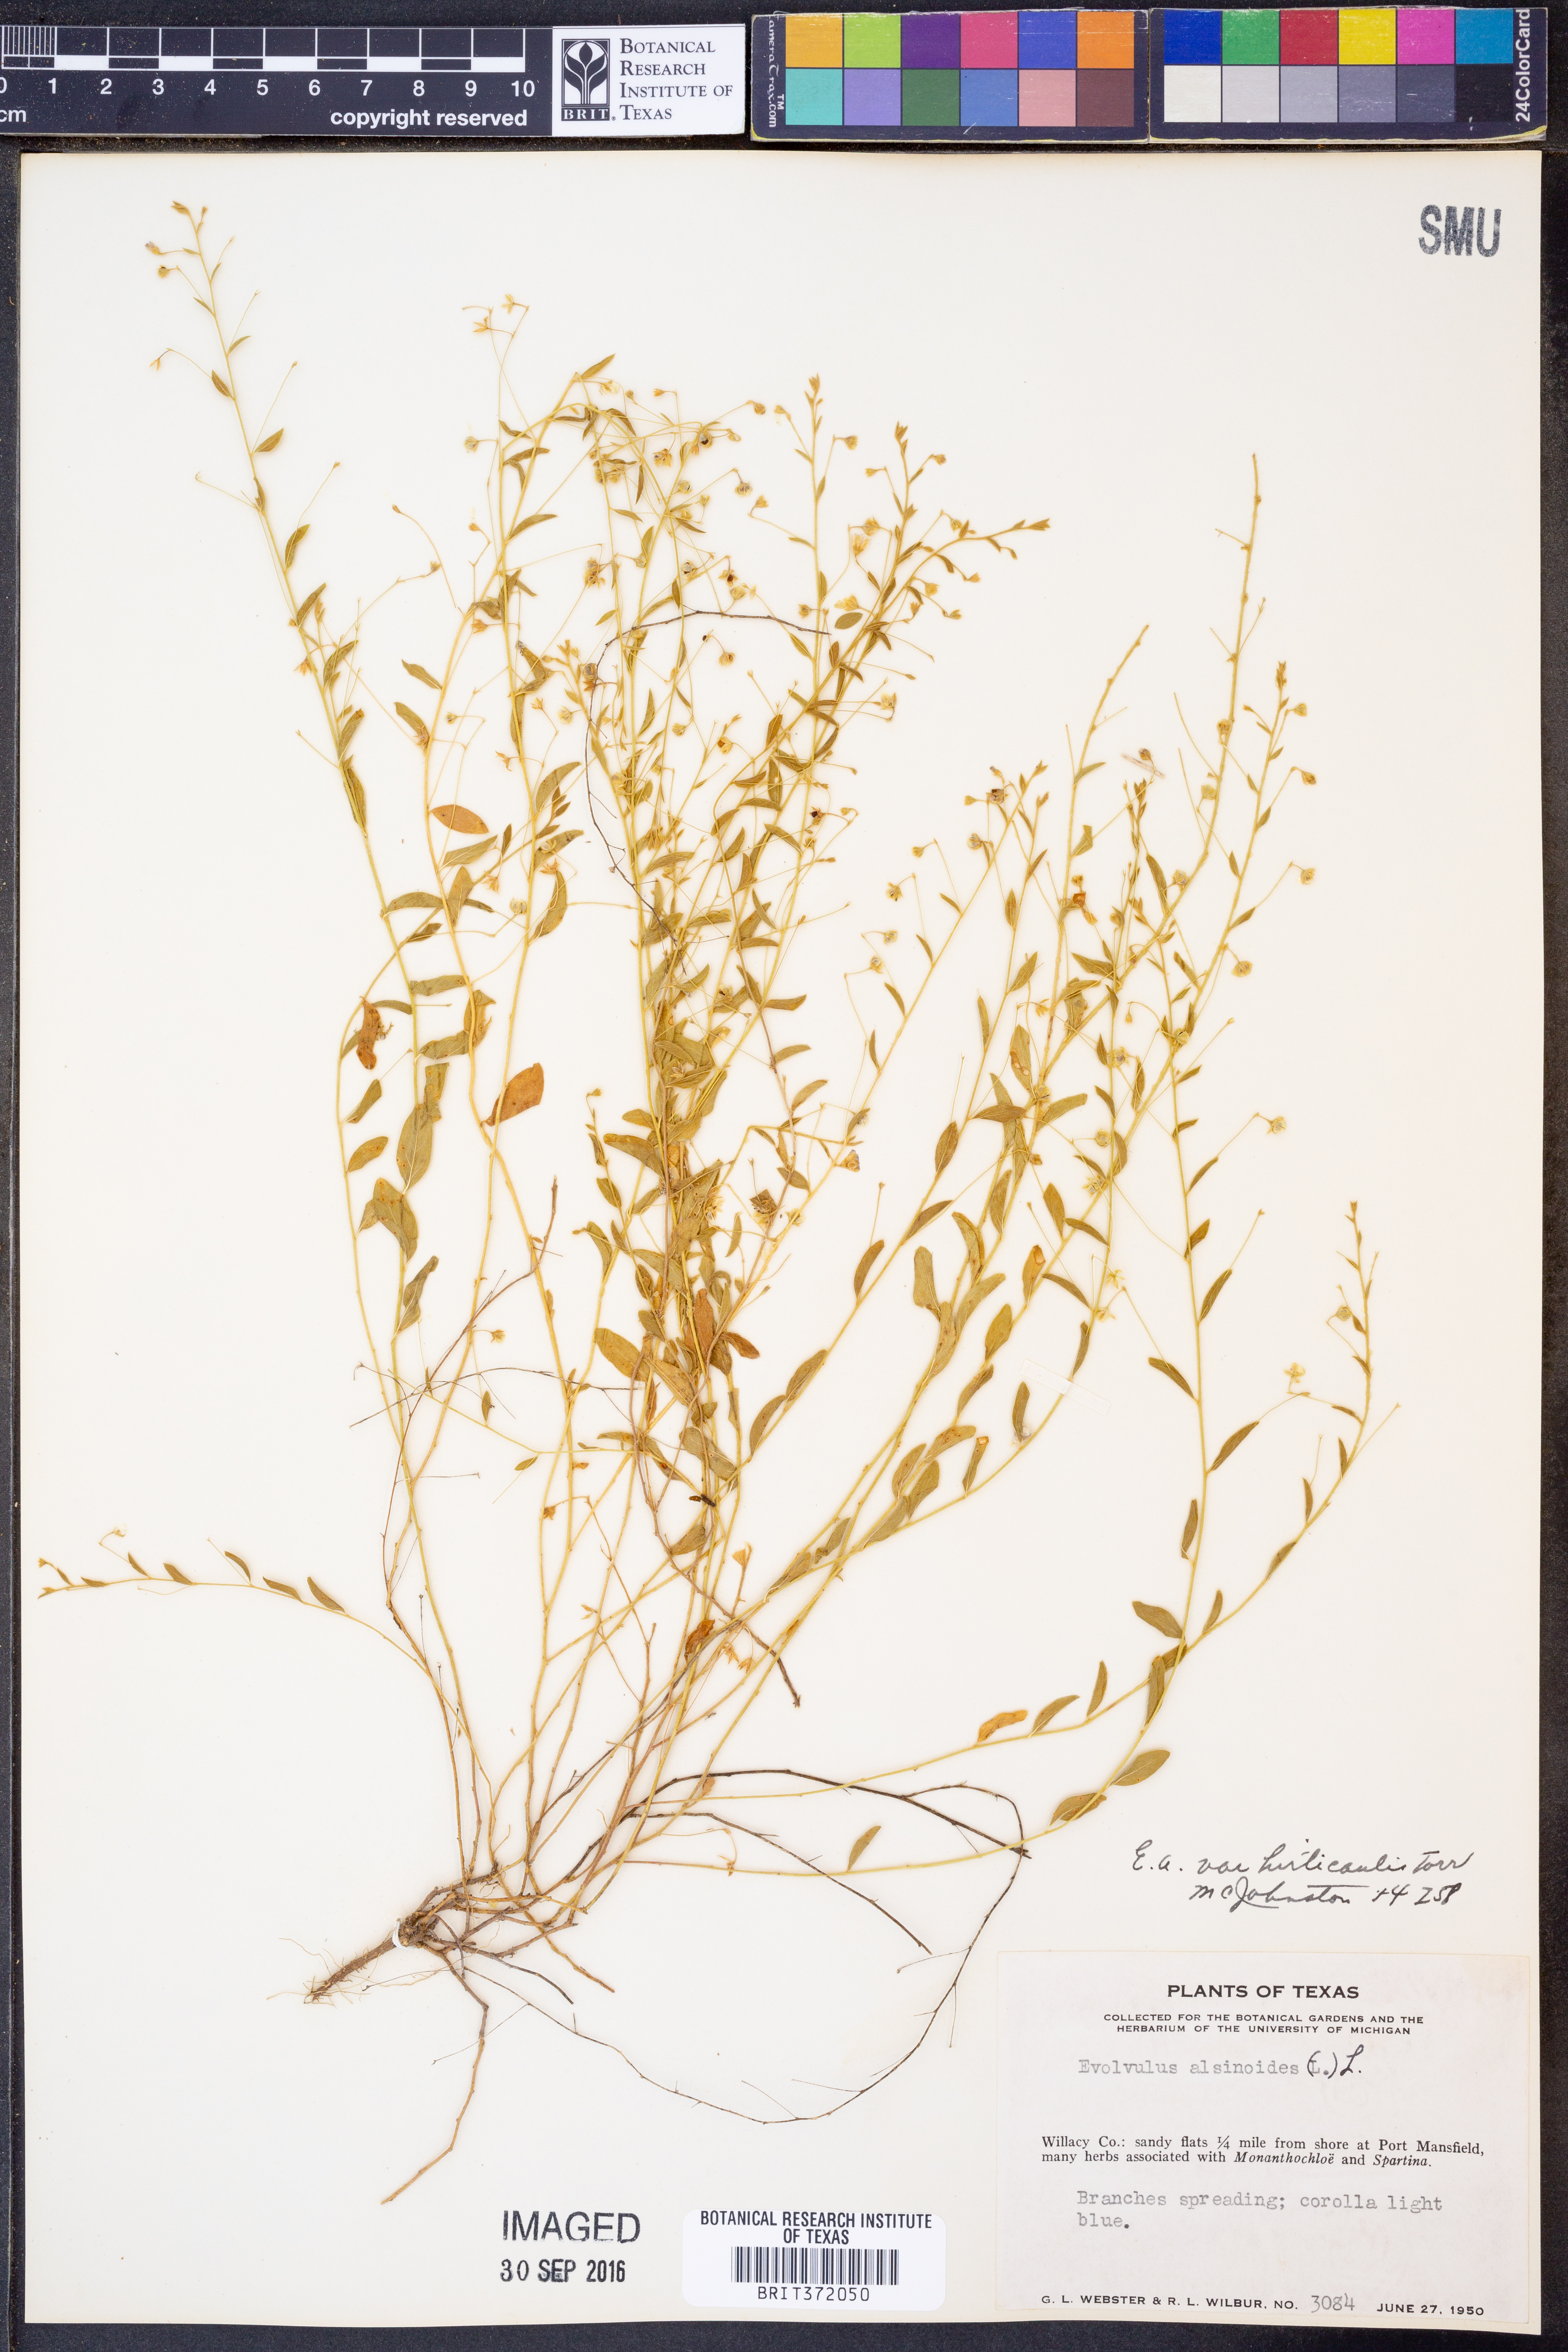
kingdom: Plantae
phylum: Tracheophyta
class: Magnoliopsida
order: Solanales
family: Convolvulaceae
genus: Evolvulus
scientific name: Evolvulus alsinoides
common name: Slender dwarf morning-glory
